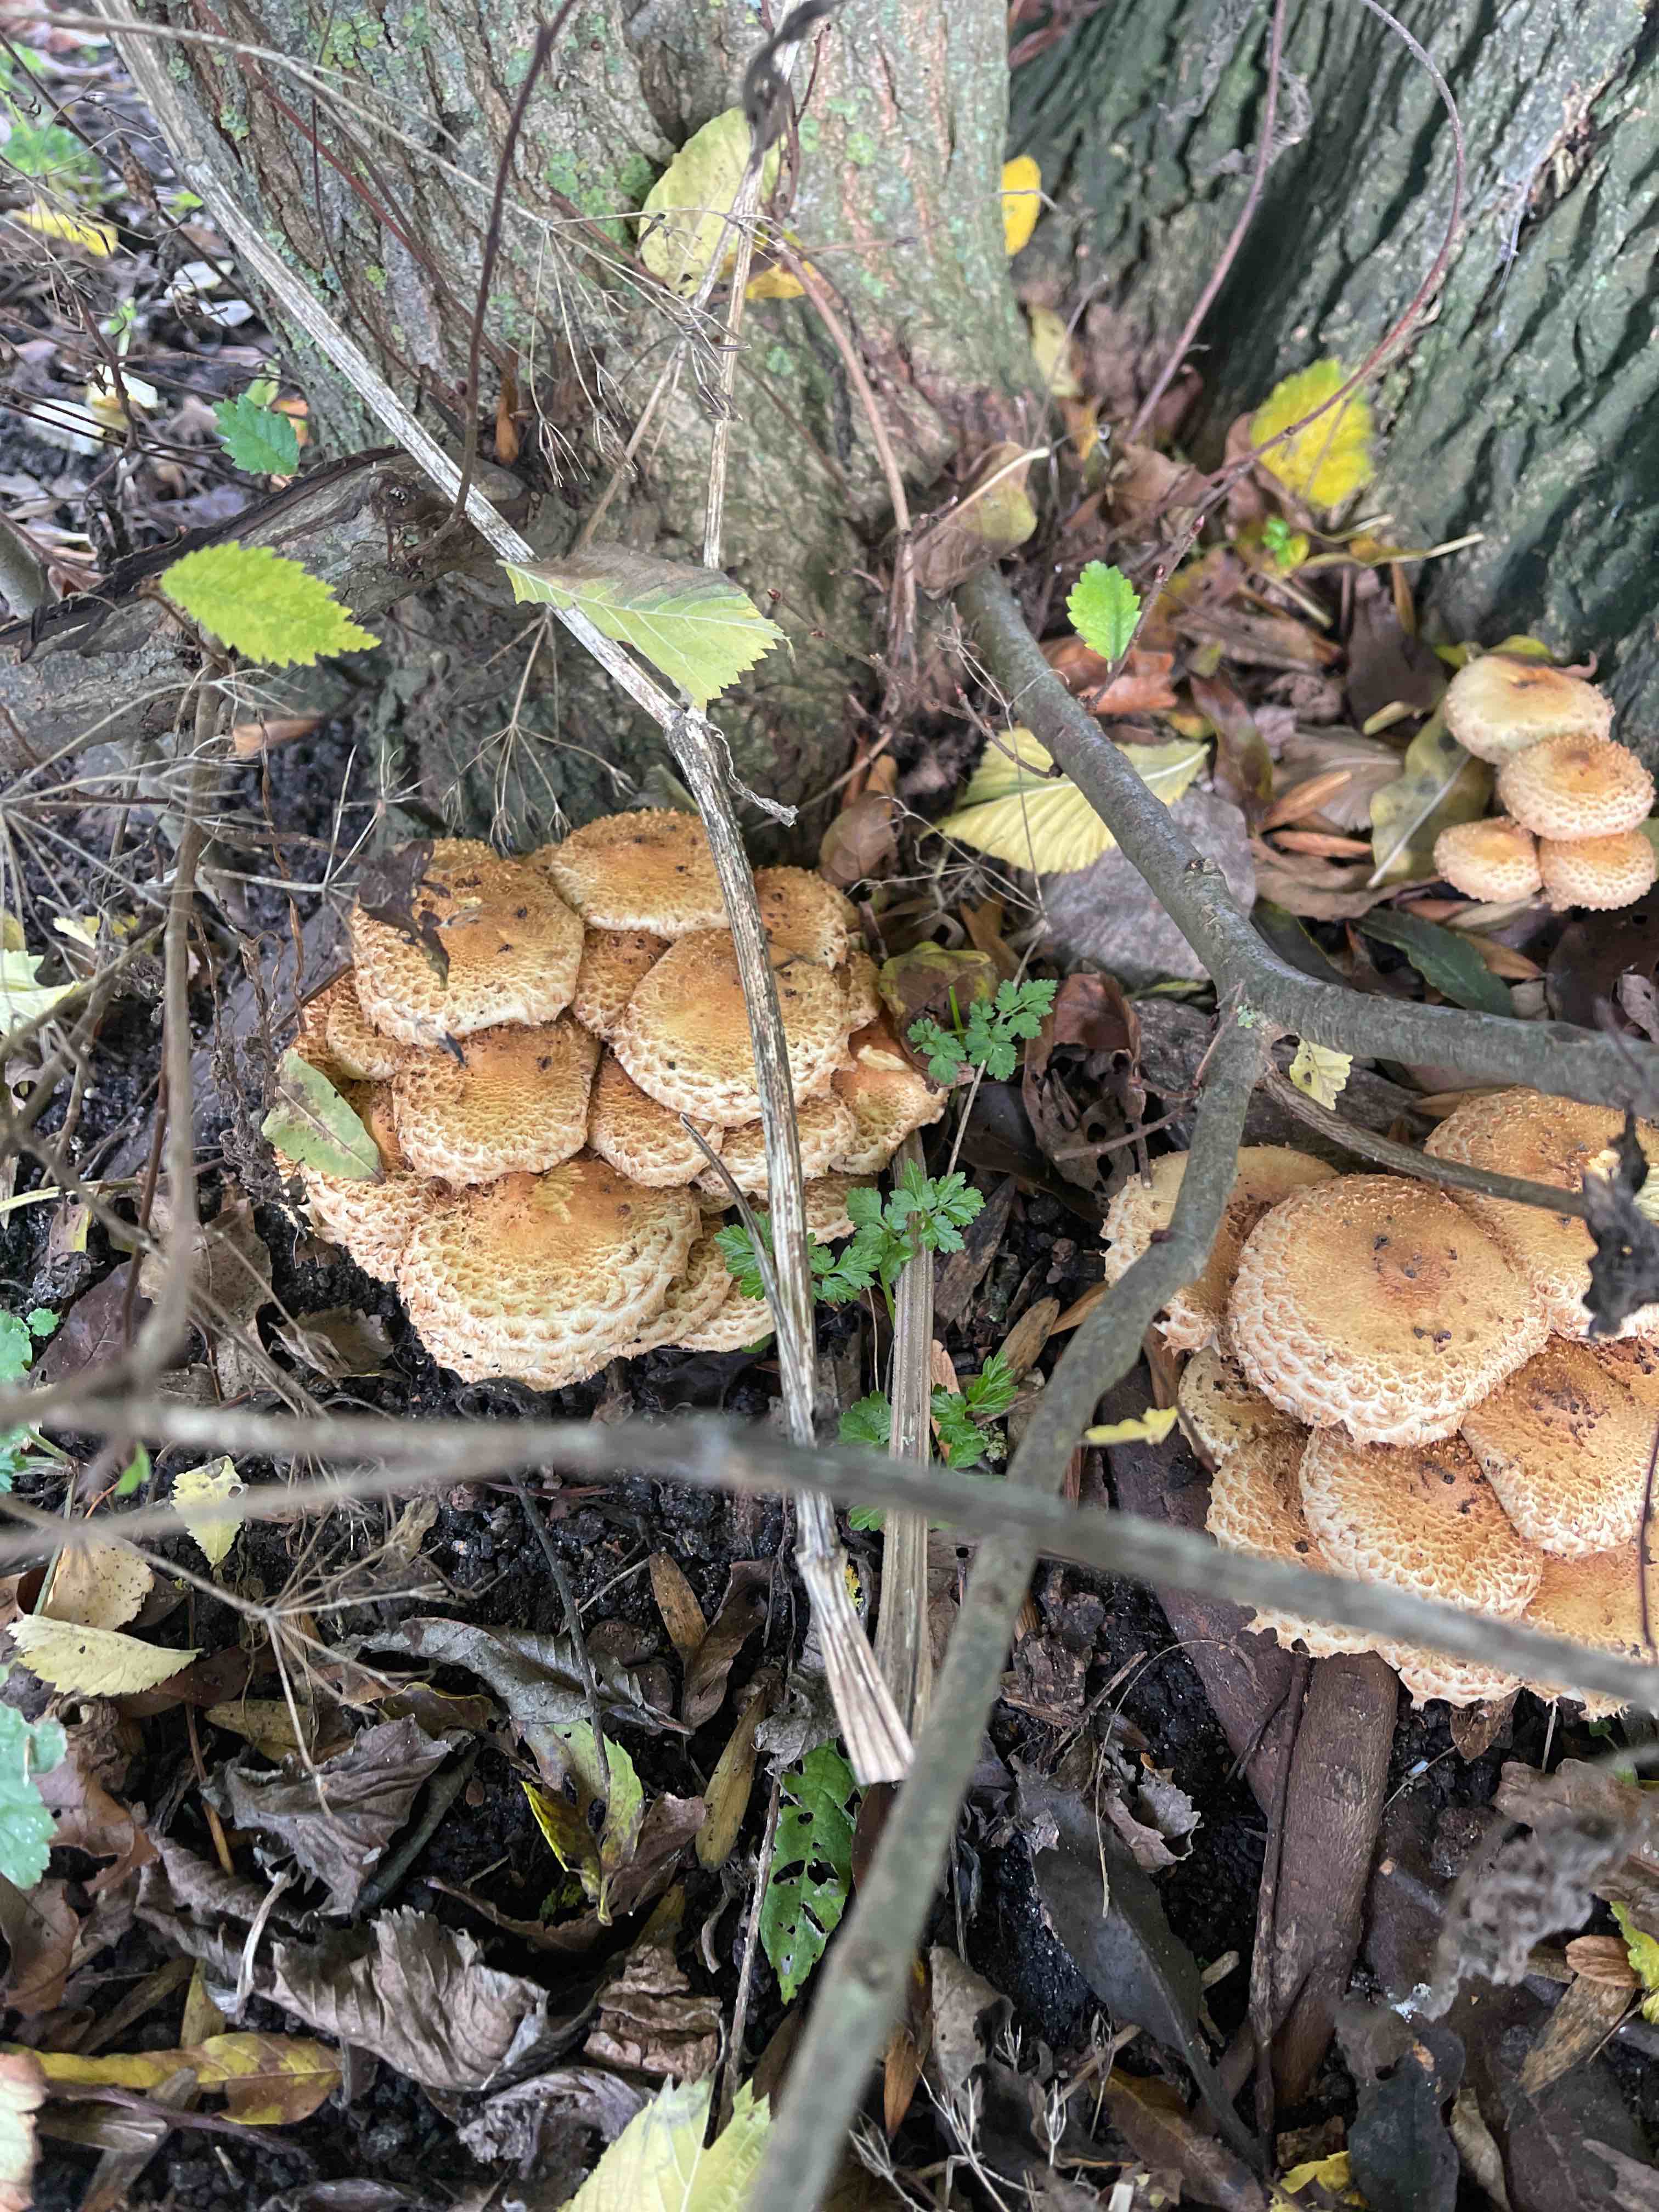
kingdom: Fungi
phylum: Basidiomycota
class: Agaricomycetes
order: Agaricales
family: Strophariaceae
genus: Pholiota
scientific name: Pholiota squarrosa
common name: krumskællet skælhat
